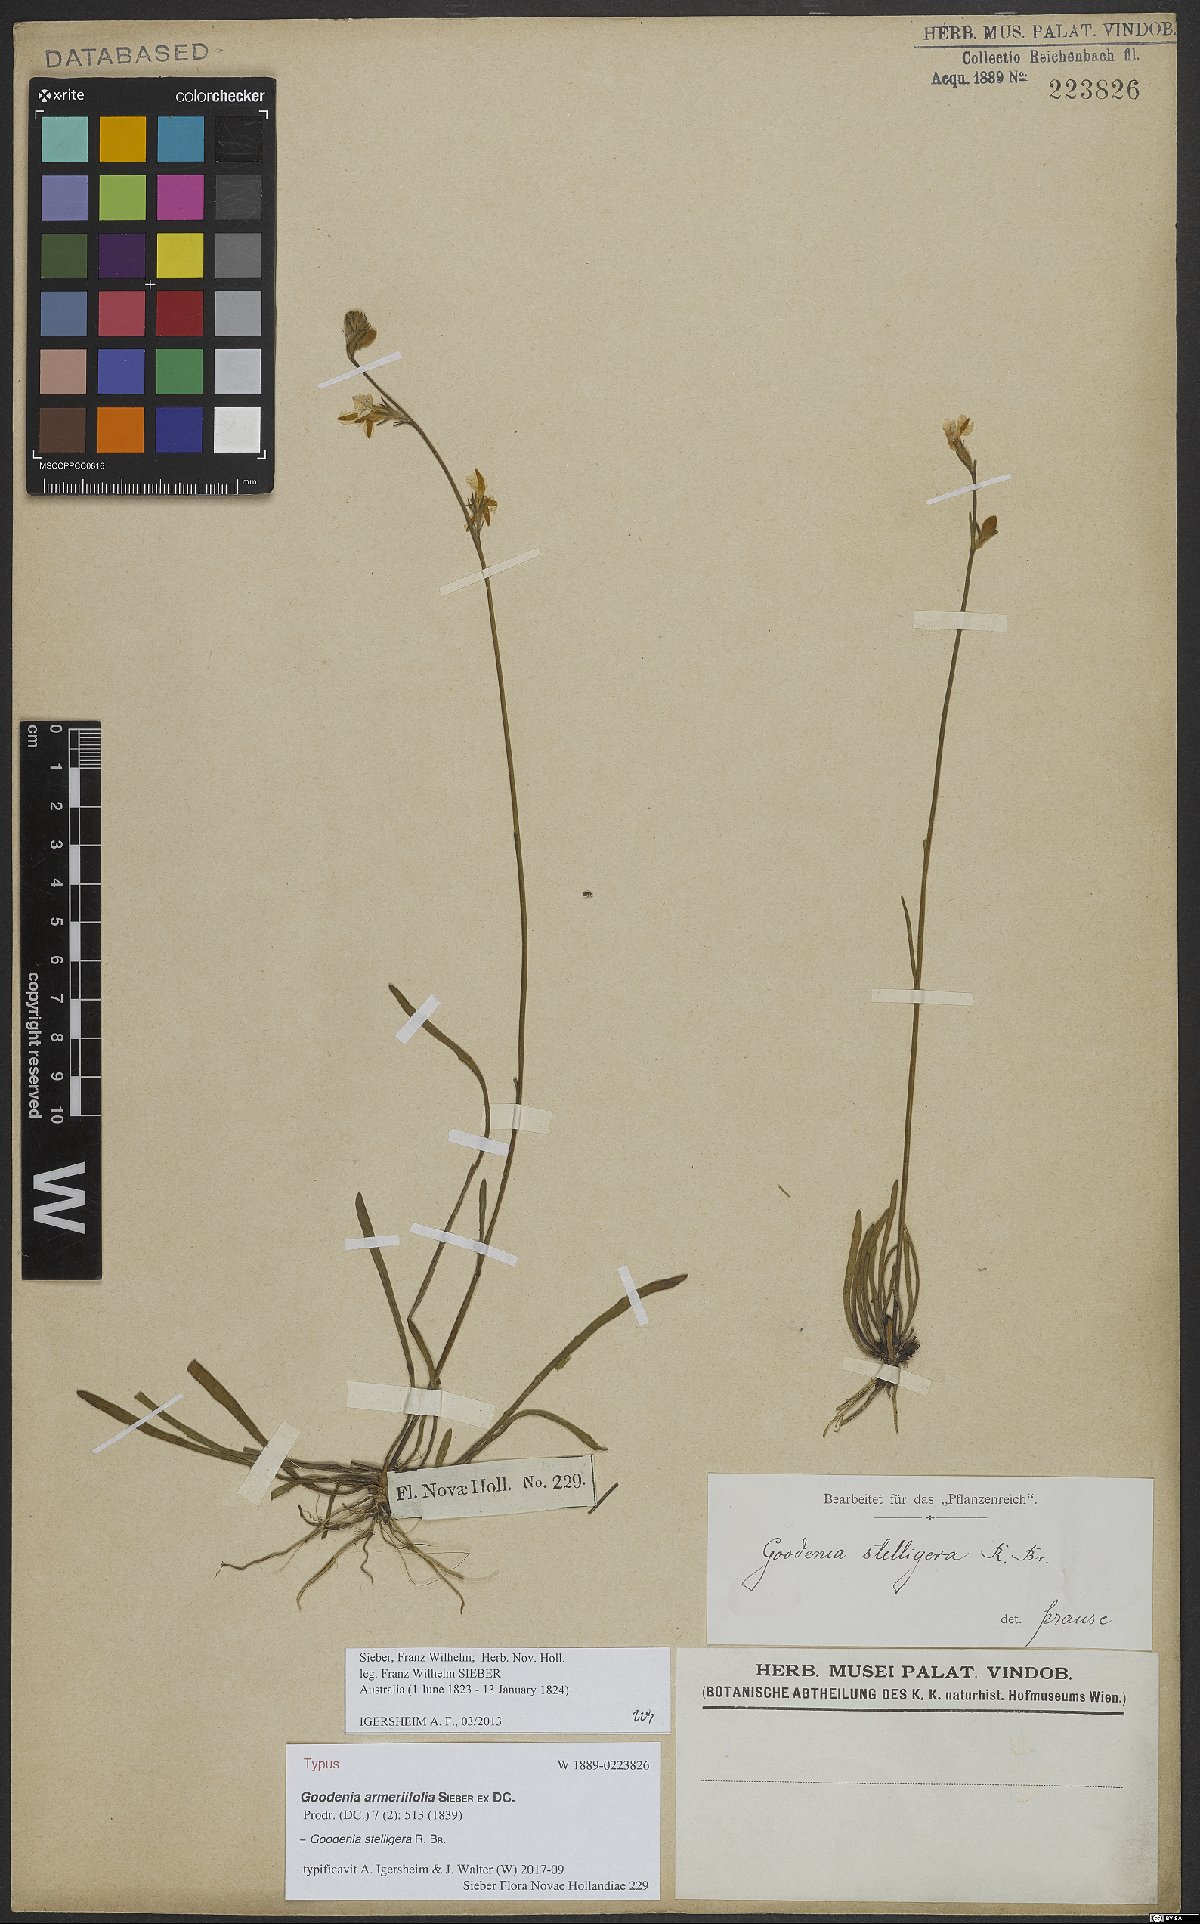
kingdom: Plantae
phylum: Tracheophyta
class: Magnoliopsida
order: Asterales
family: Goodeniaceae
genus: Goodenia
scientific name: Goodenia stelligera
